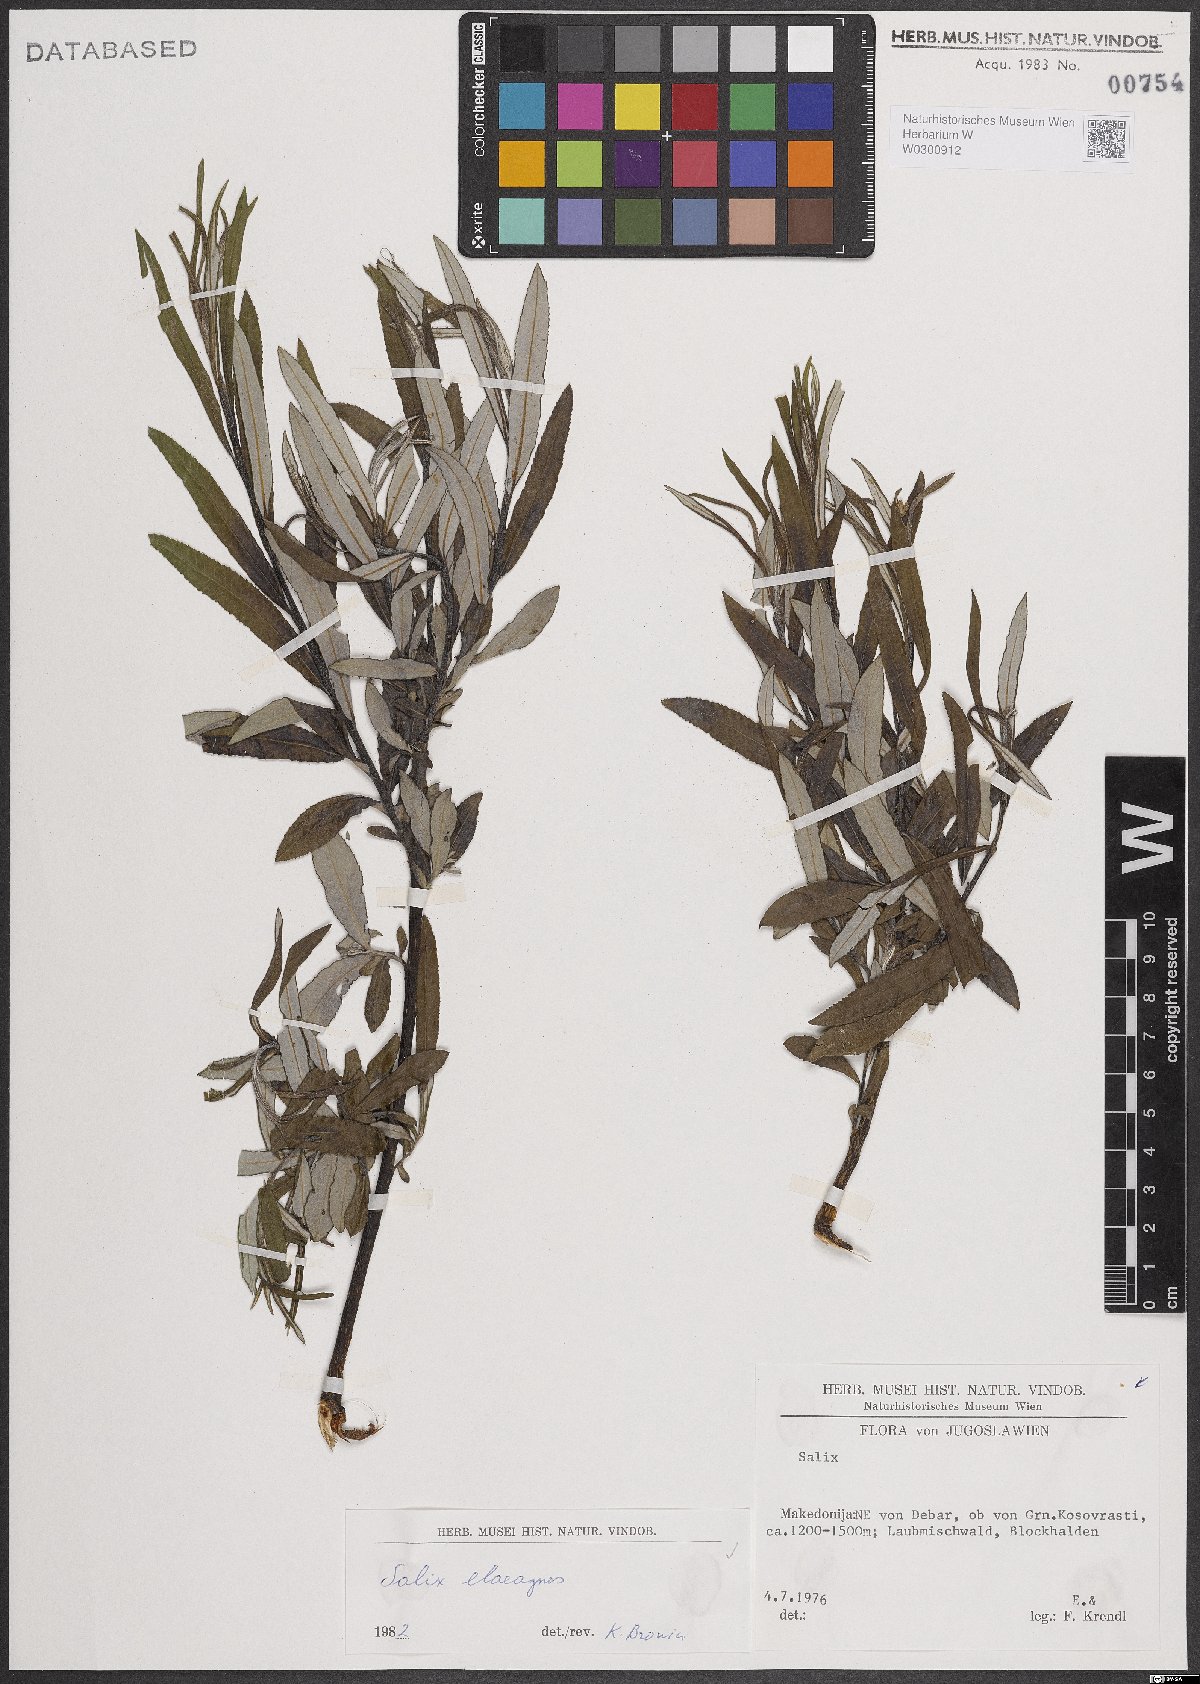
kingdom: Plantae
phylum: Tracheophyta
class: Magnoliopsida
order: Malpighiales
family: Salicaceae
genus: Salix
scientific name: Salix eleagnos
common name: Elaeagnus willow
